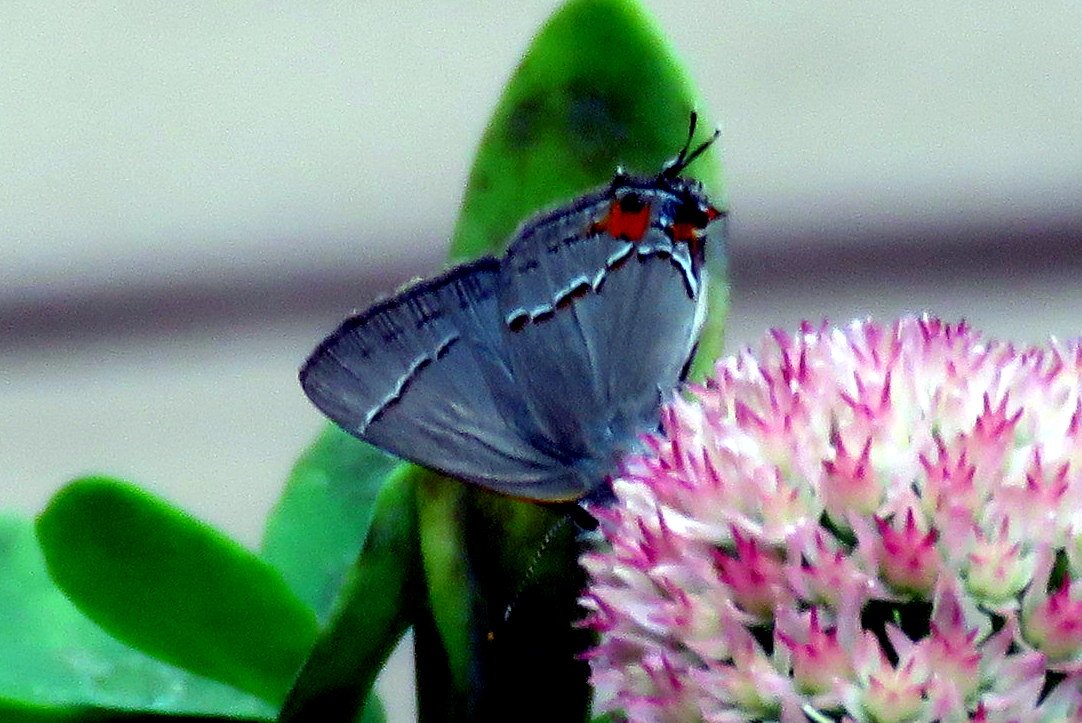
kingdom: Animalia
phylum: Arthropoda
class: Insecta
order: Lepidoptera
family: Lycaenidae
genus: Strymon
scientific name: Strymon melinus
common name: Gray Hairstreak
